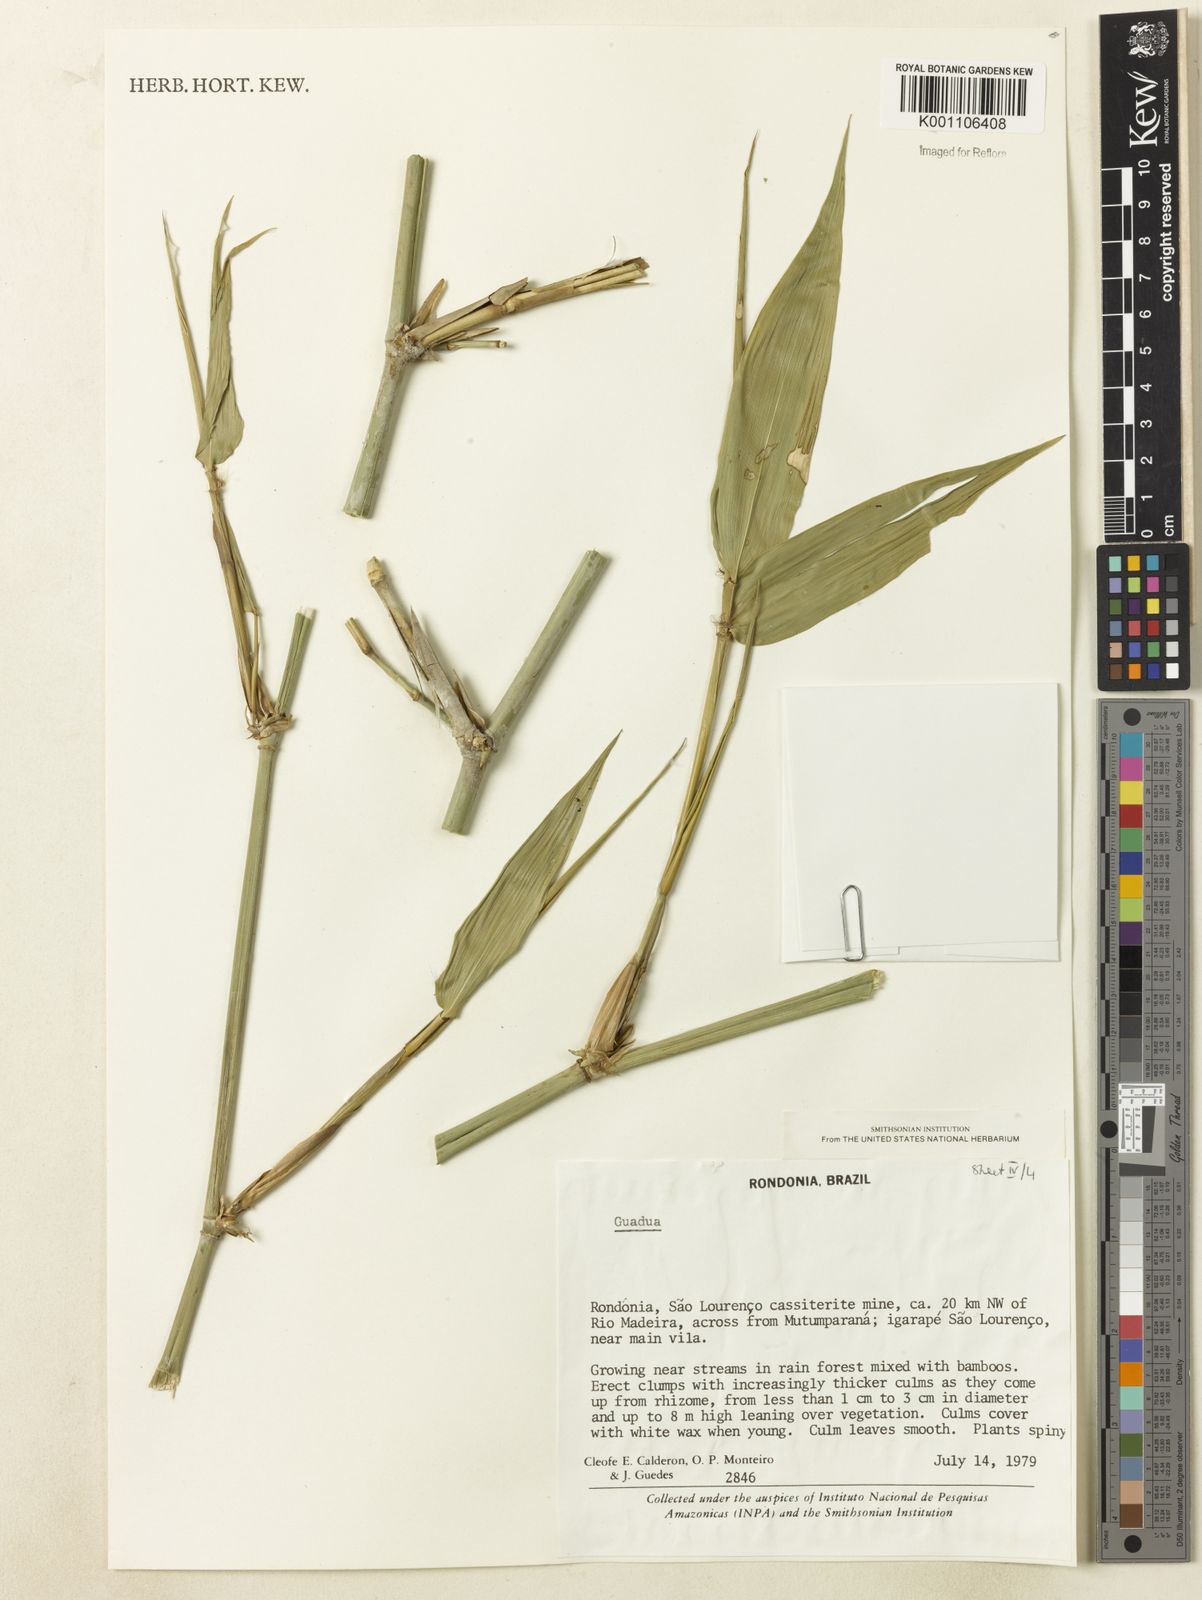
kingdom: Plantae
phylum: Tracheophyta
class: Liliopsida
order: Poales
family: Poaceae
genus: Guadua
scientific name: Guadua
